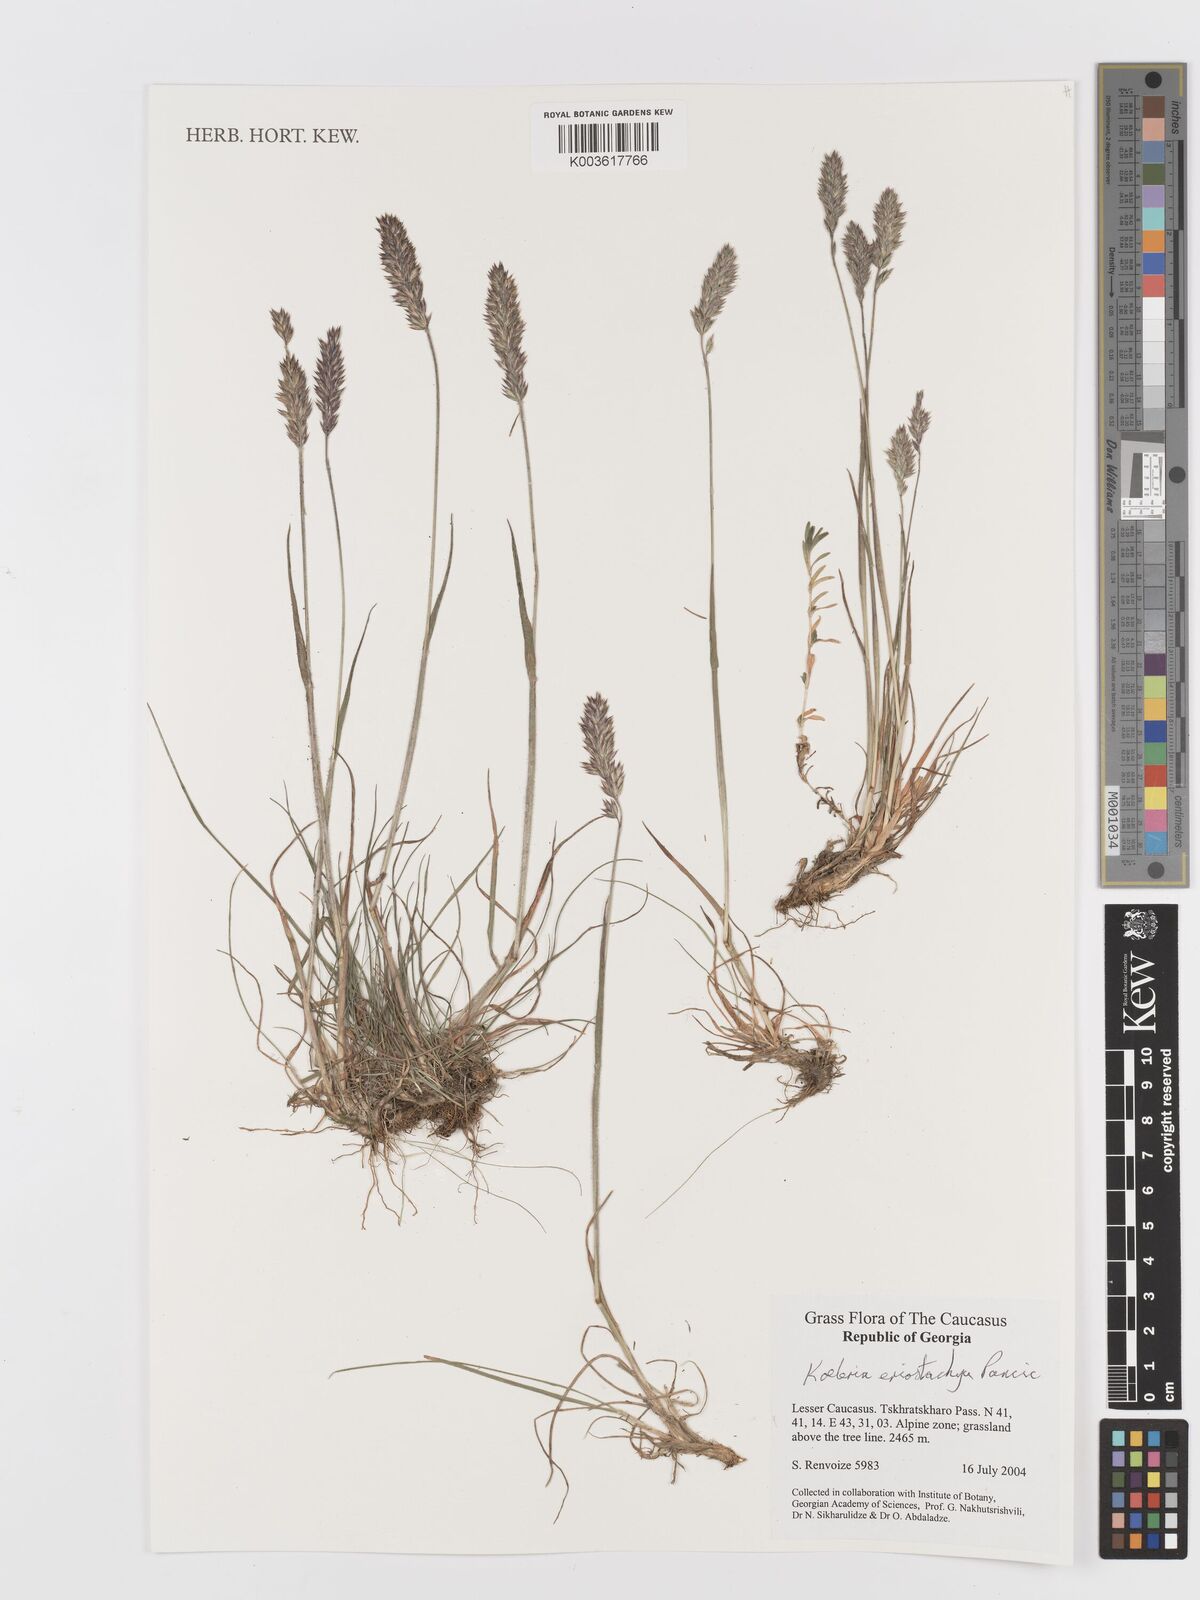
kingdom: Plantae
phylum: Tracheophyta
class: Liliopsida
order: Poales
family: Poaceae
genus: Koeleria
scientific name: Koeleria eriostachya
